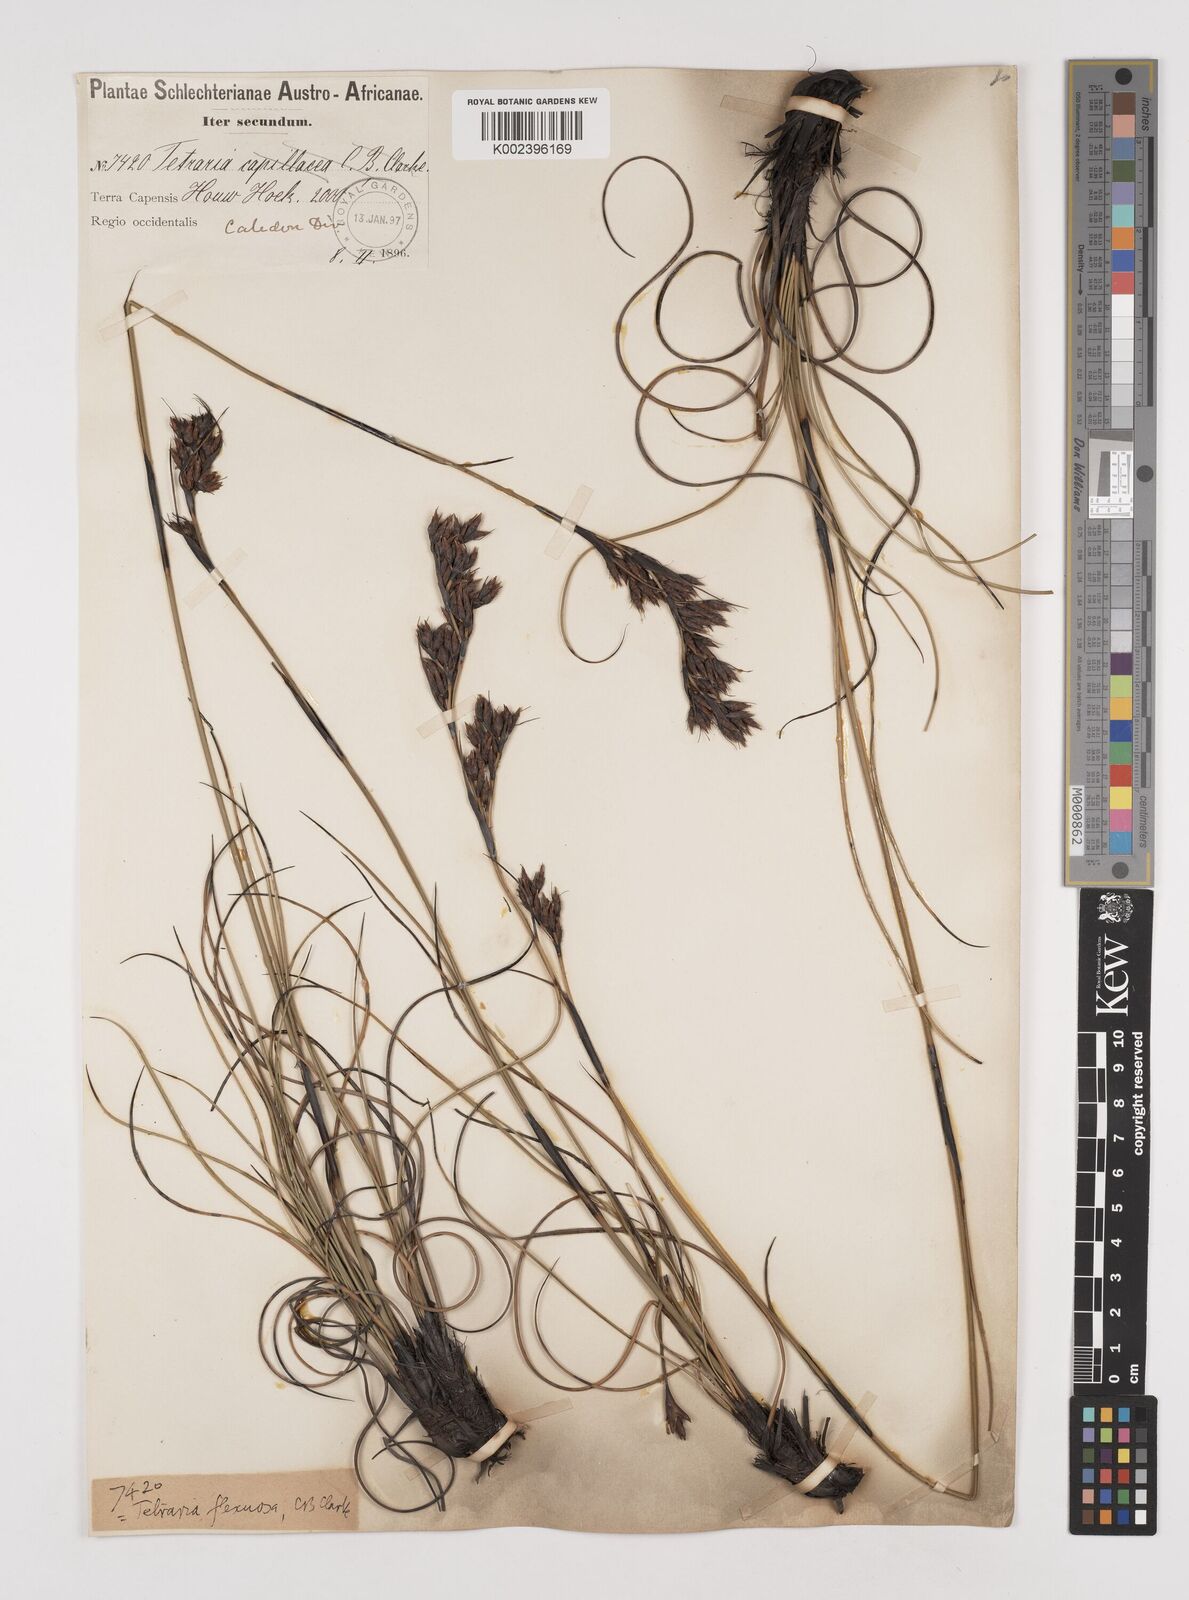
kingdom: Plantae
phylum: Tracheophyta
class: Liliopsida
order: Poales
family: Cyperaceae
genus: Tetraria
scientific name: Tetraria flexuosa
